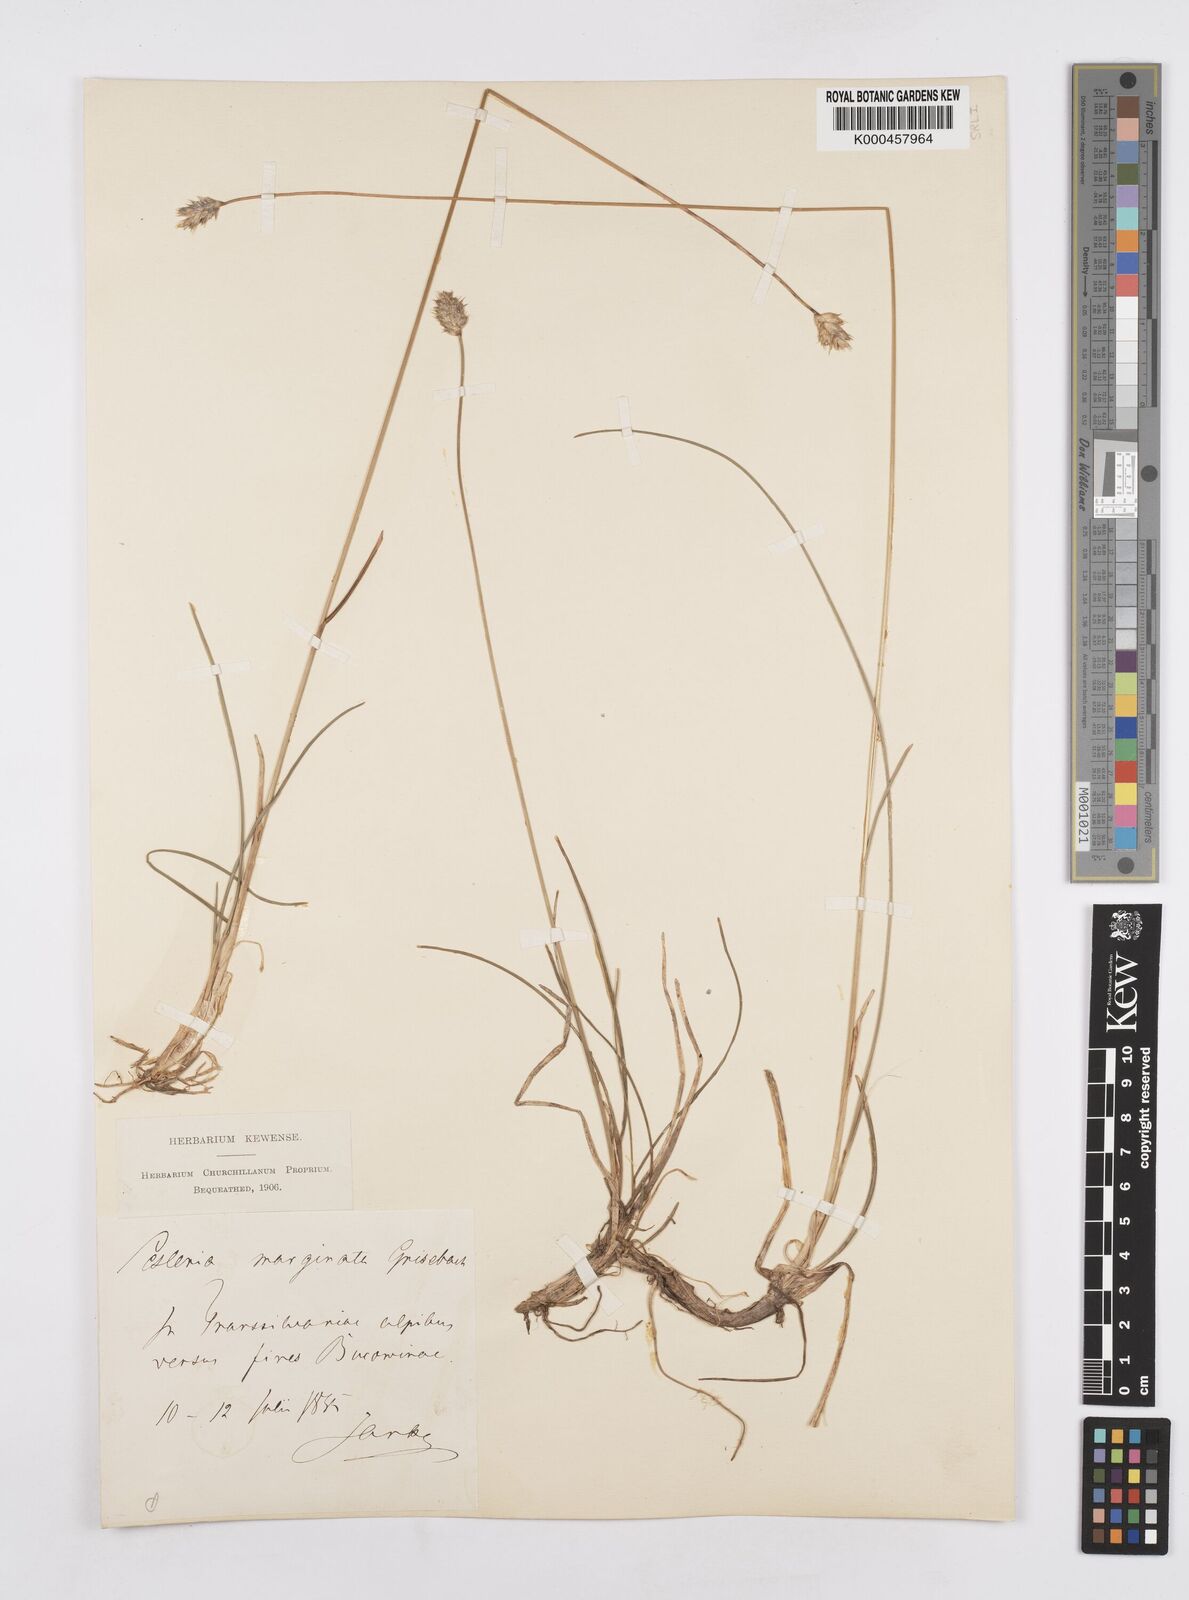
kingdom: Plantae
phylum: Tracheophyta
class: Liliopsida
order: Poales
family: Poaceae
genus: Sesleria
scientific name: Sesleria coerulans
